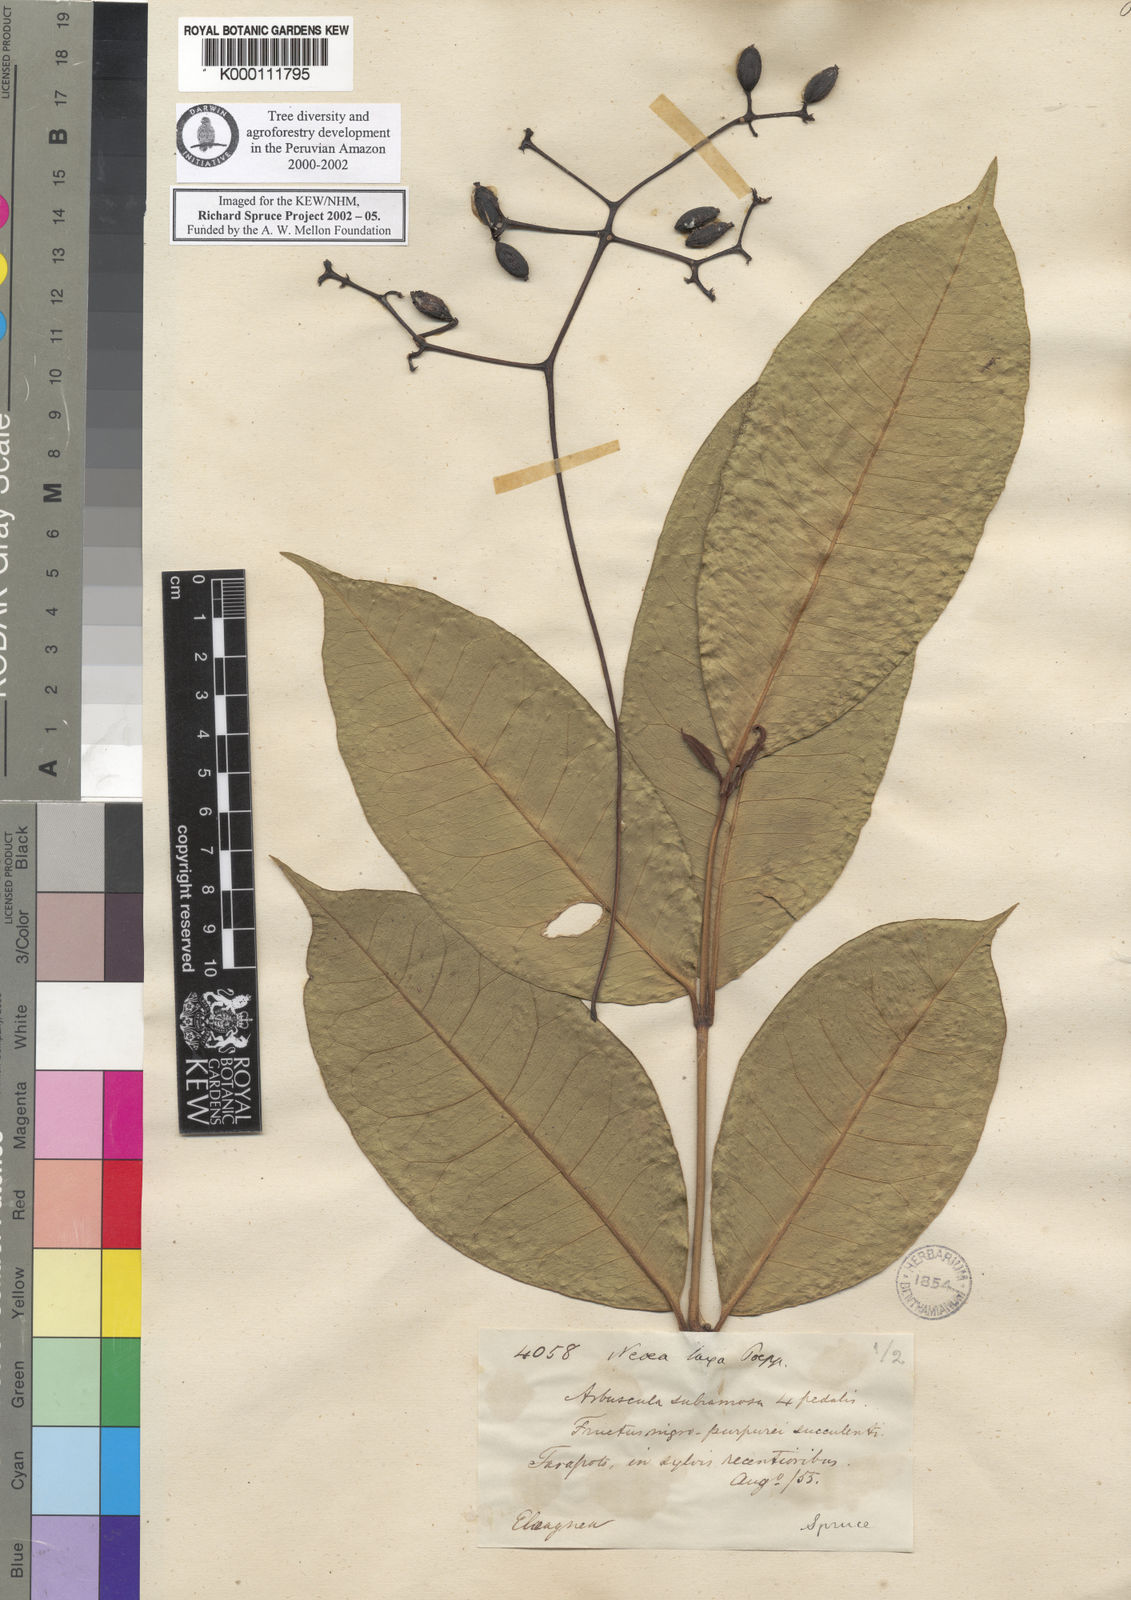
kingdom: Plantae
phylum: Tracheophyta
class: Magnoliopsida
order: Caryophyllales
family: Nyctaginaceae
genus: Neea
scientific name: Neea laxa
